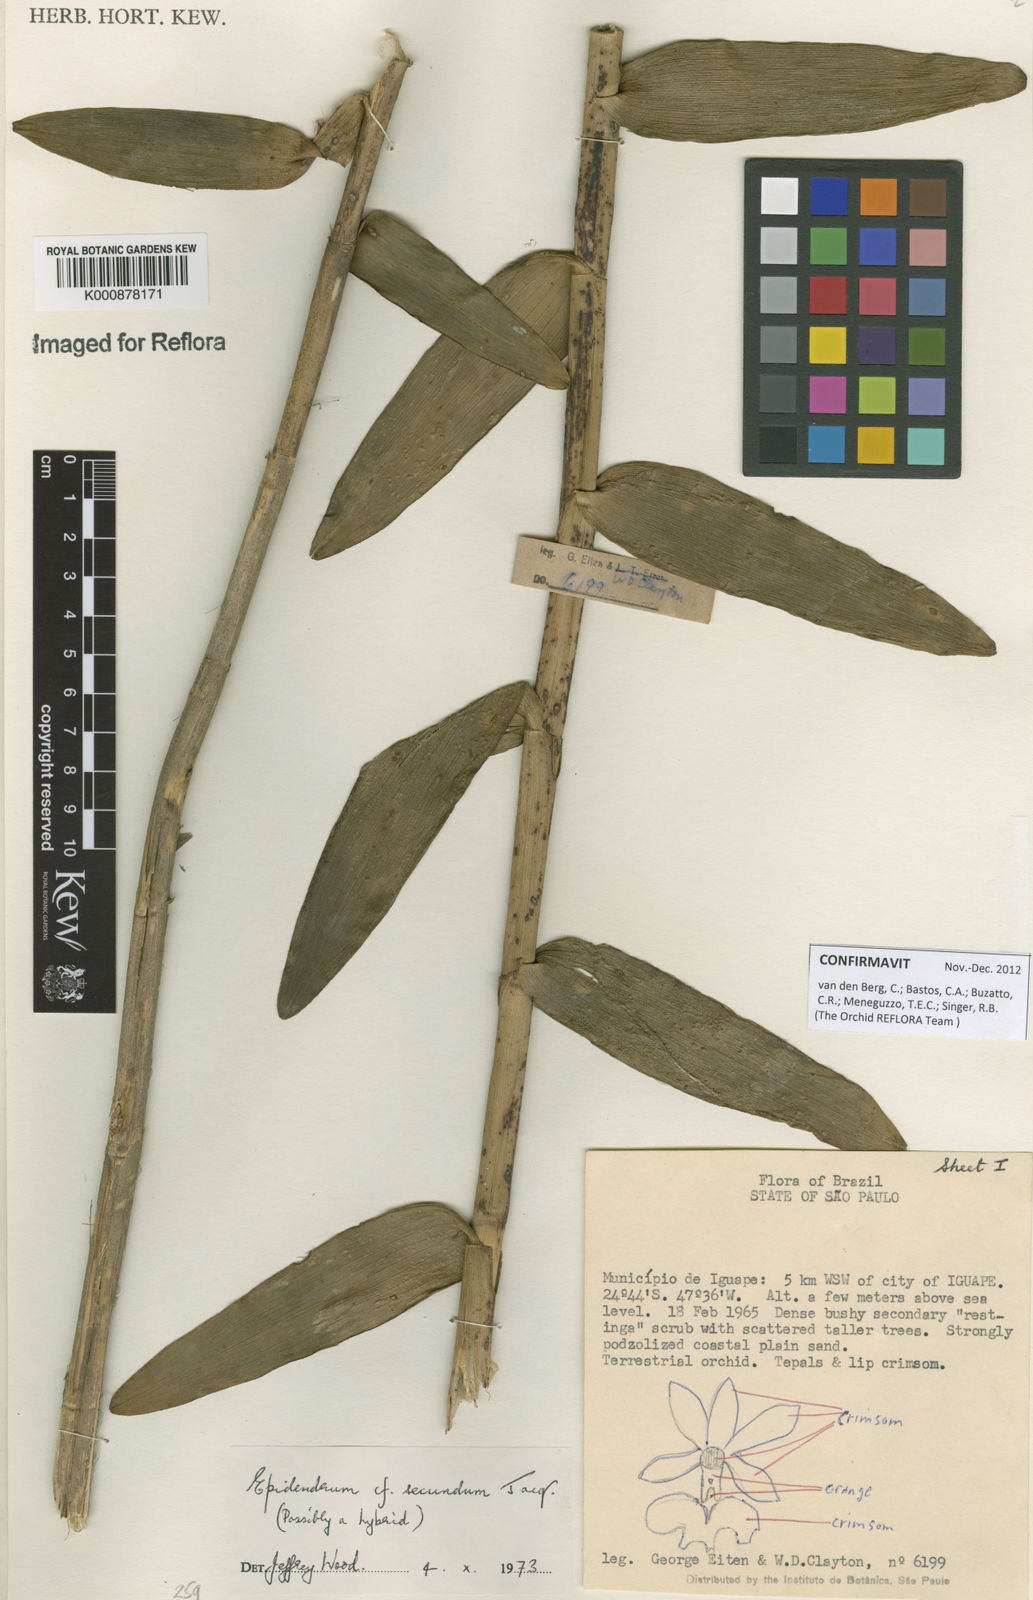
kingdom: Plantae
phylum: Tracheophyta
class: Liliopsida
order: Asparagales
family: Orchidaceae
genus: Epidendrum
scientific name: Epidendrum denticulatum
